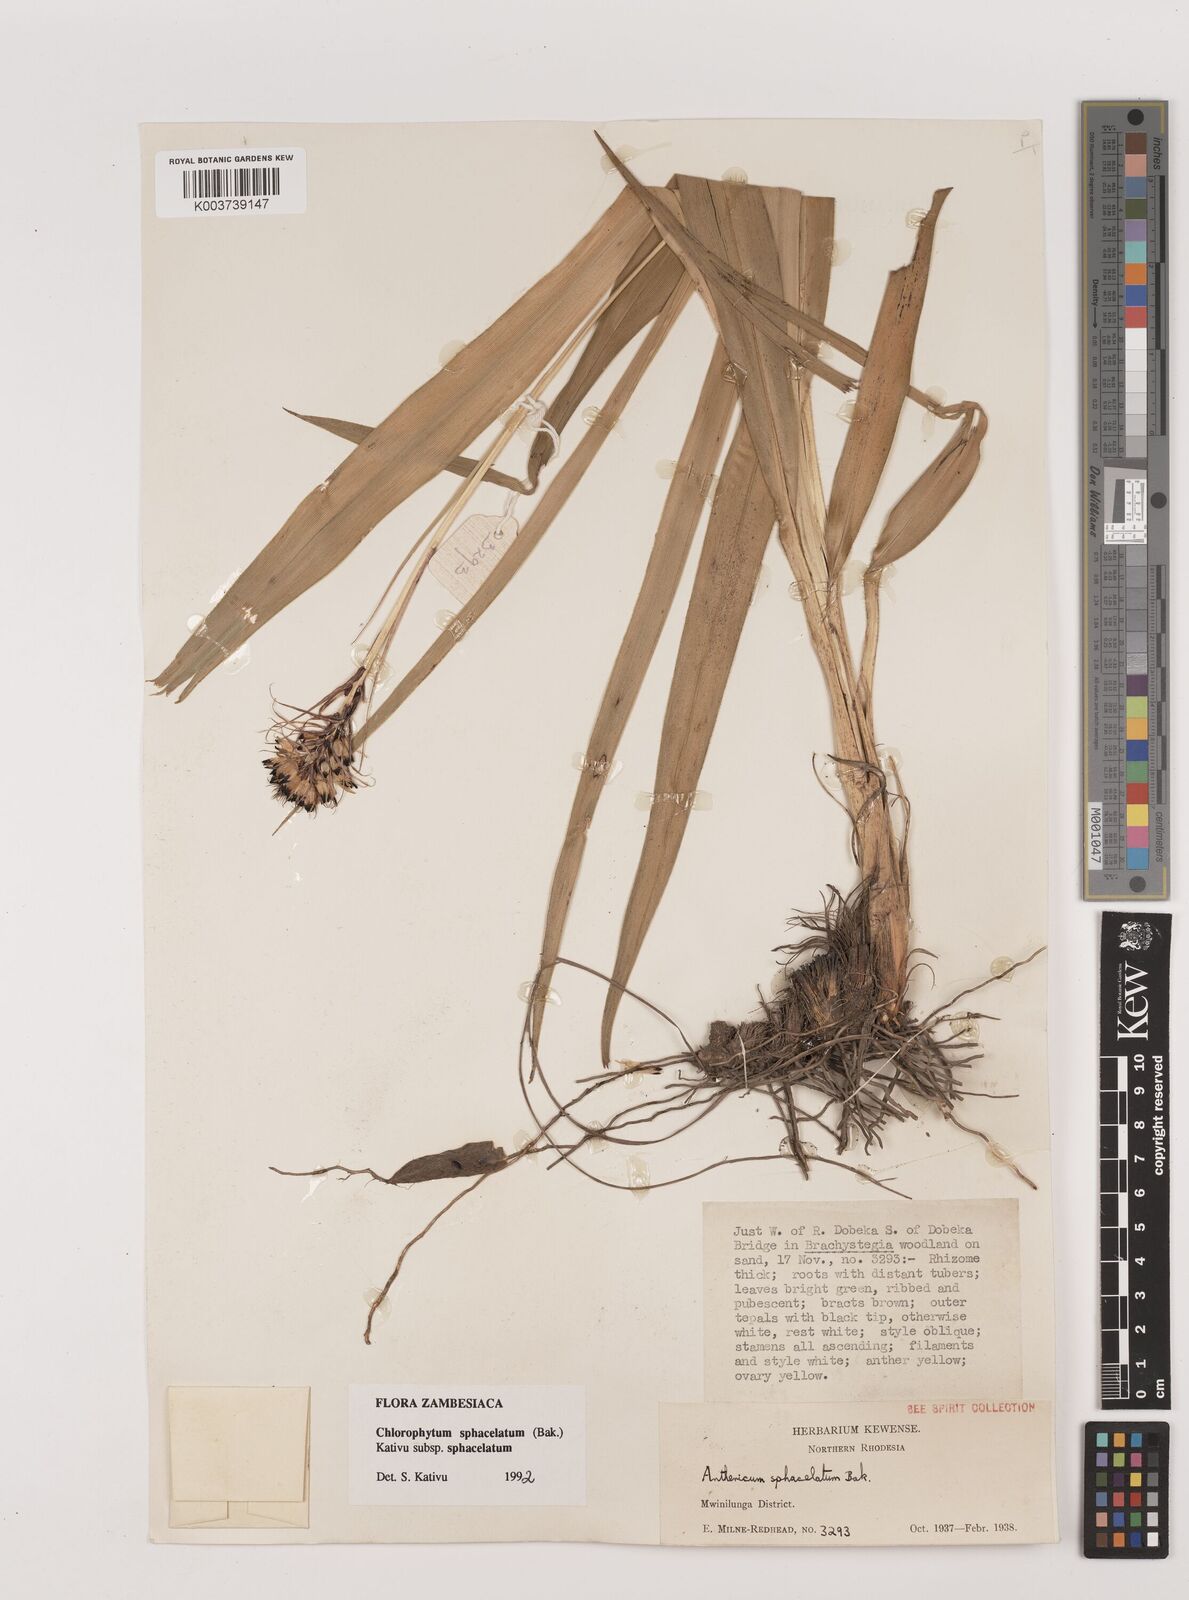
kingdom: Plantae
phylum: Tracheophyta
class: Liliopsida
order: Asparagales
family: Asparagaceae
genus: Chlorophytum
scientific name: Chlorophytum sphacelatum
